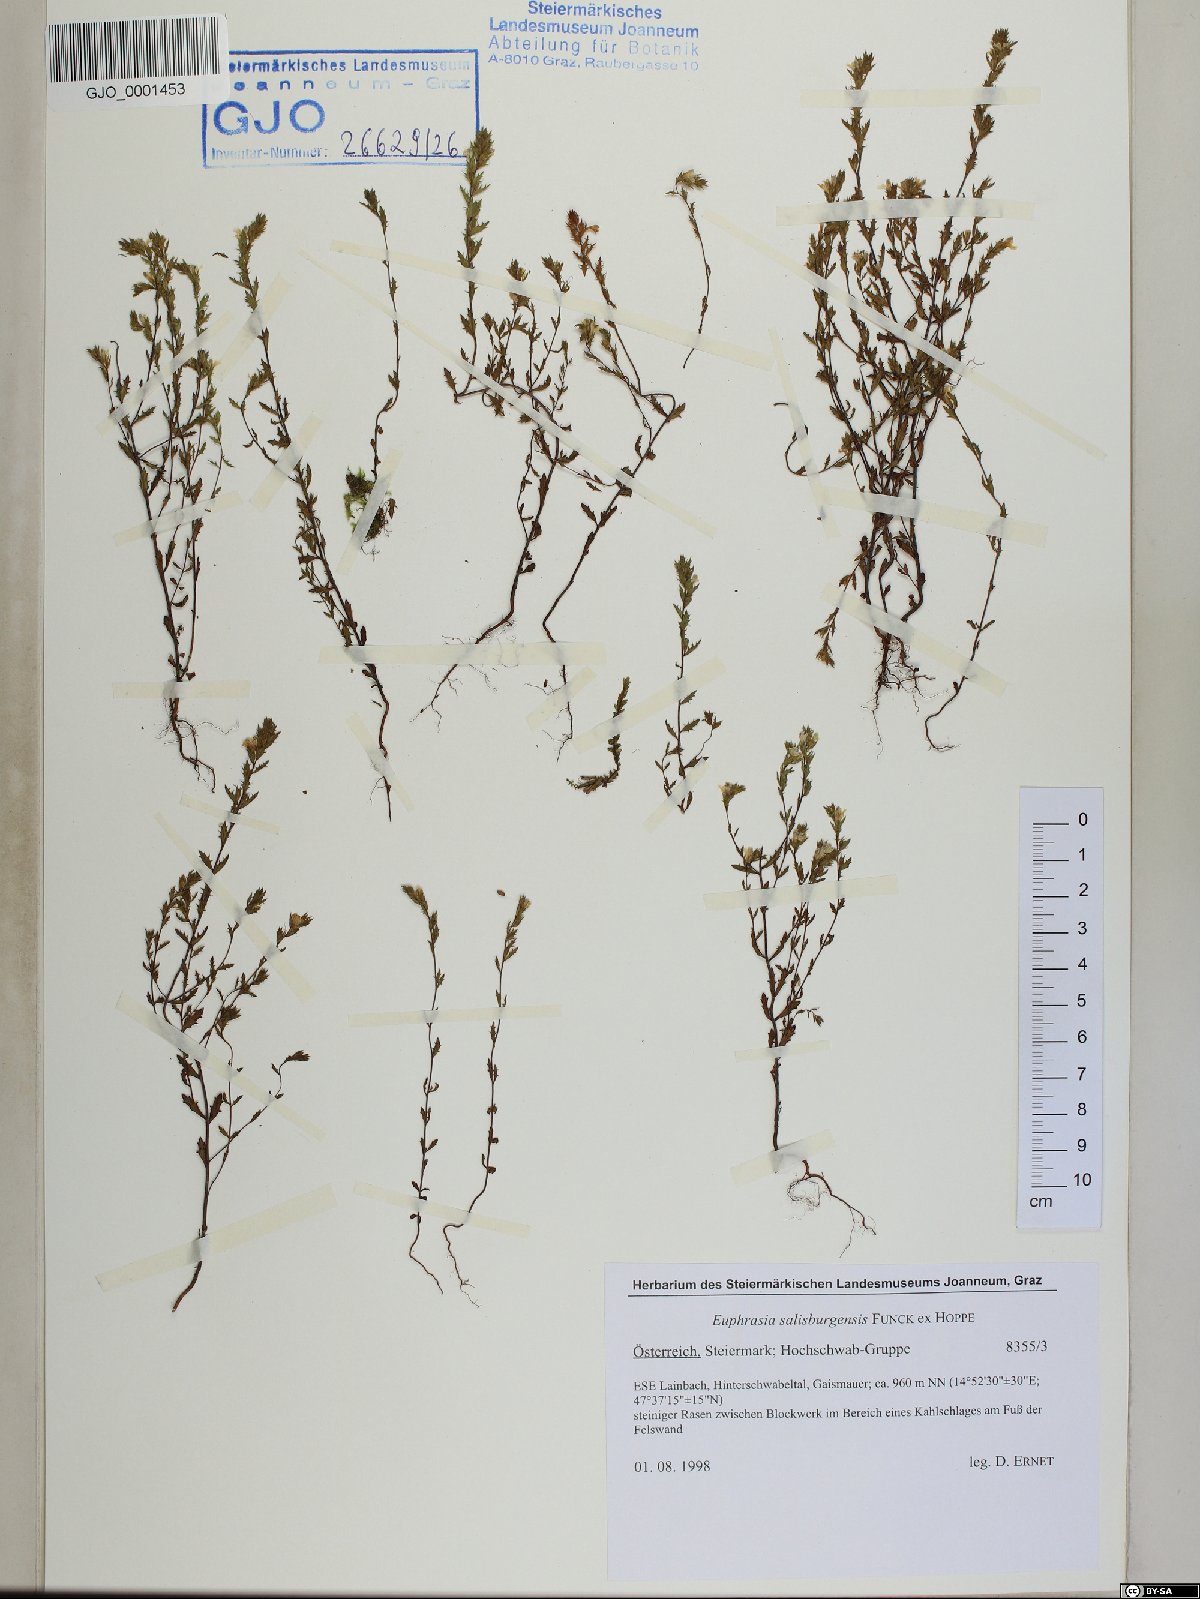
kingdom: Plantae
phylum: Tracheophyta
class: Magnoliopsida
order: Lamiales
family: Orobanchaceae
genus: Euphrasia
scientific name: Euphrasia salisburgensis
